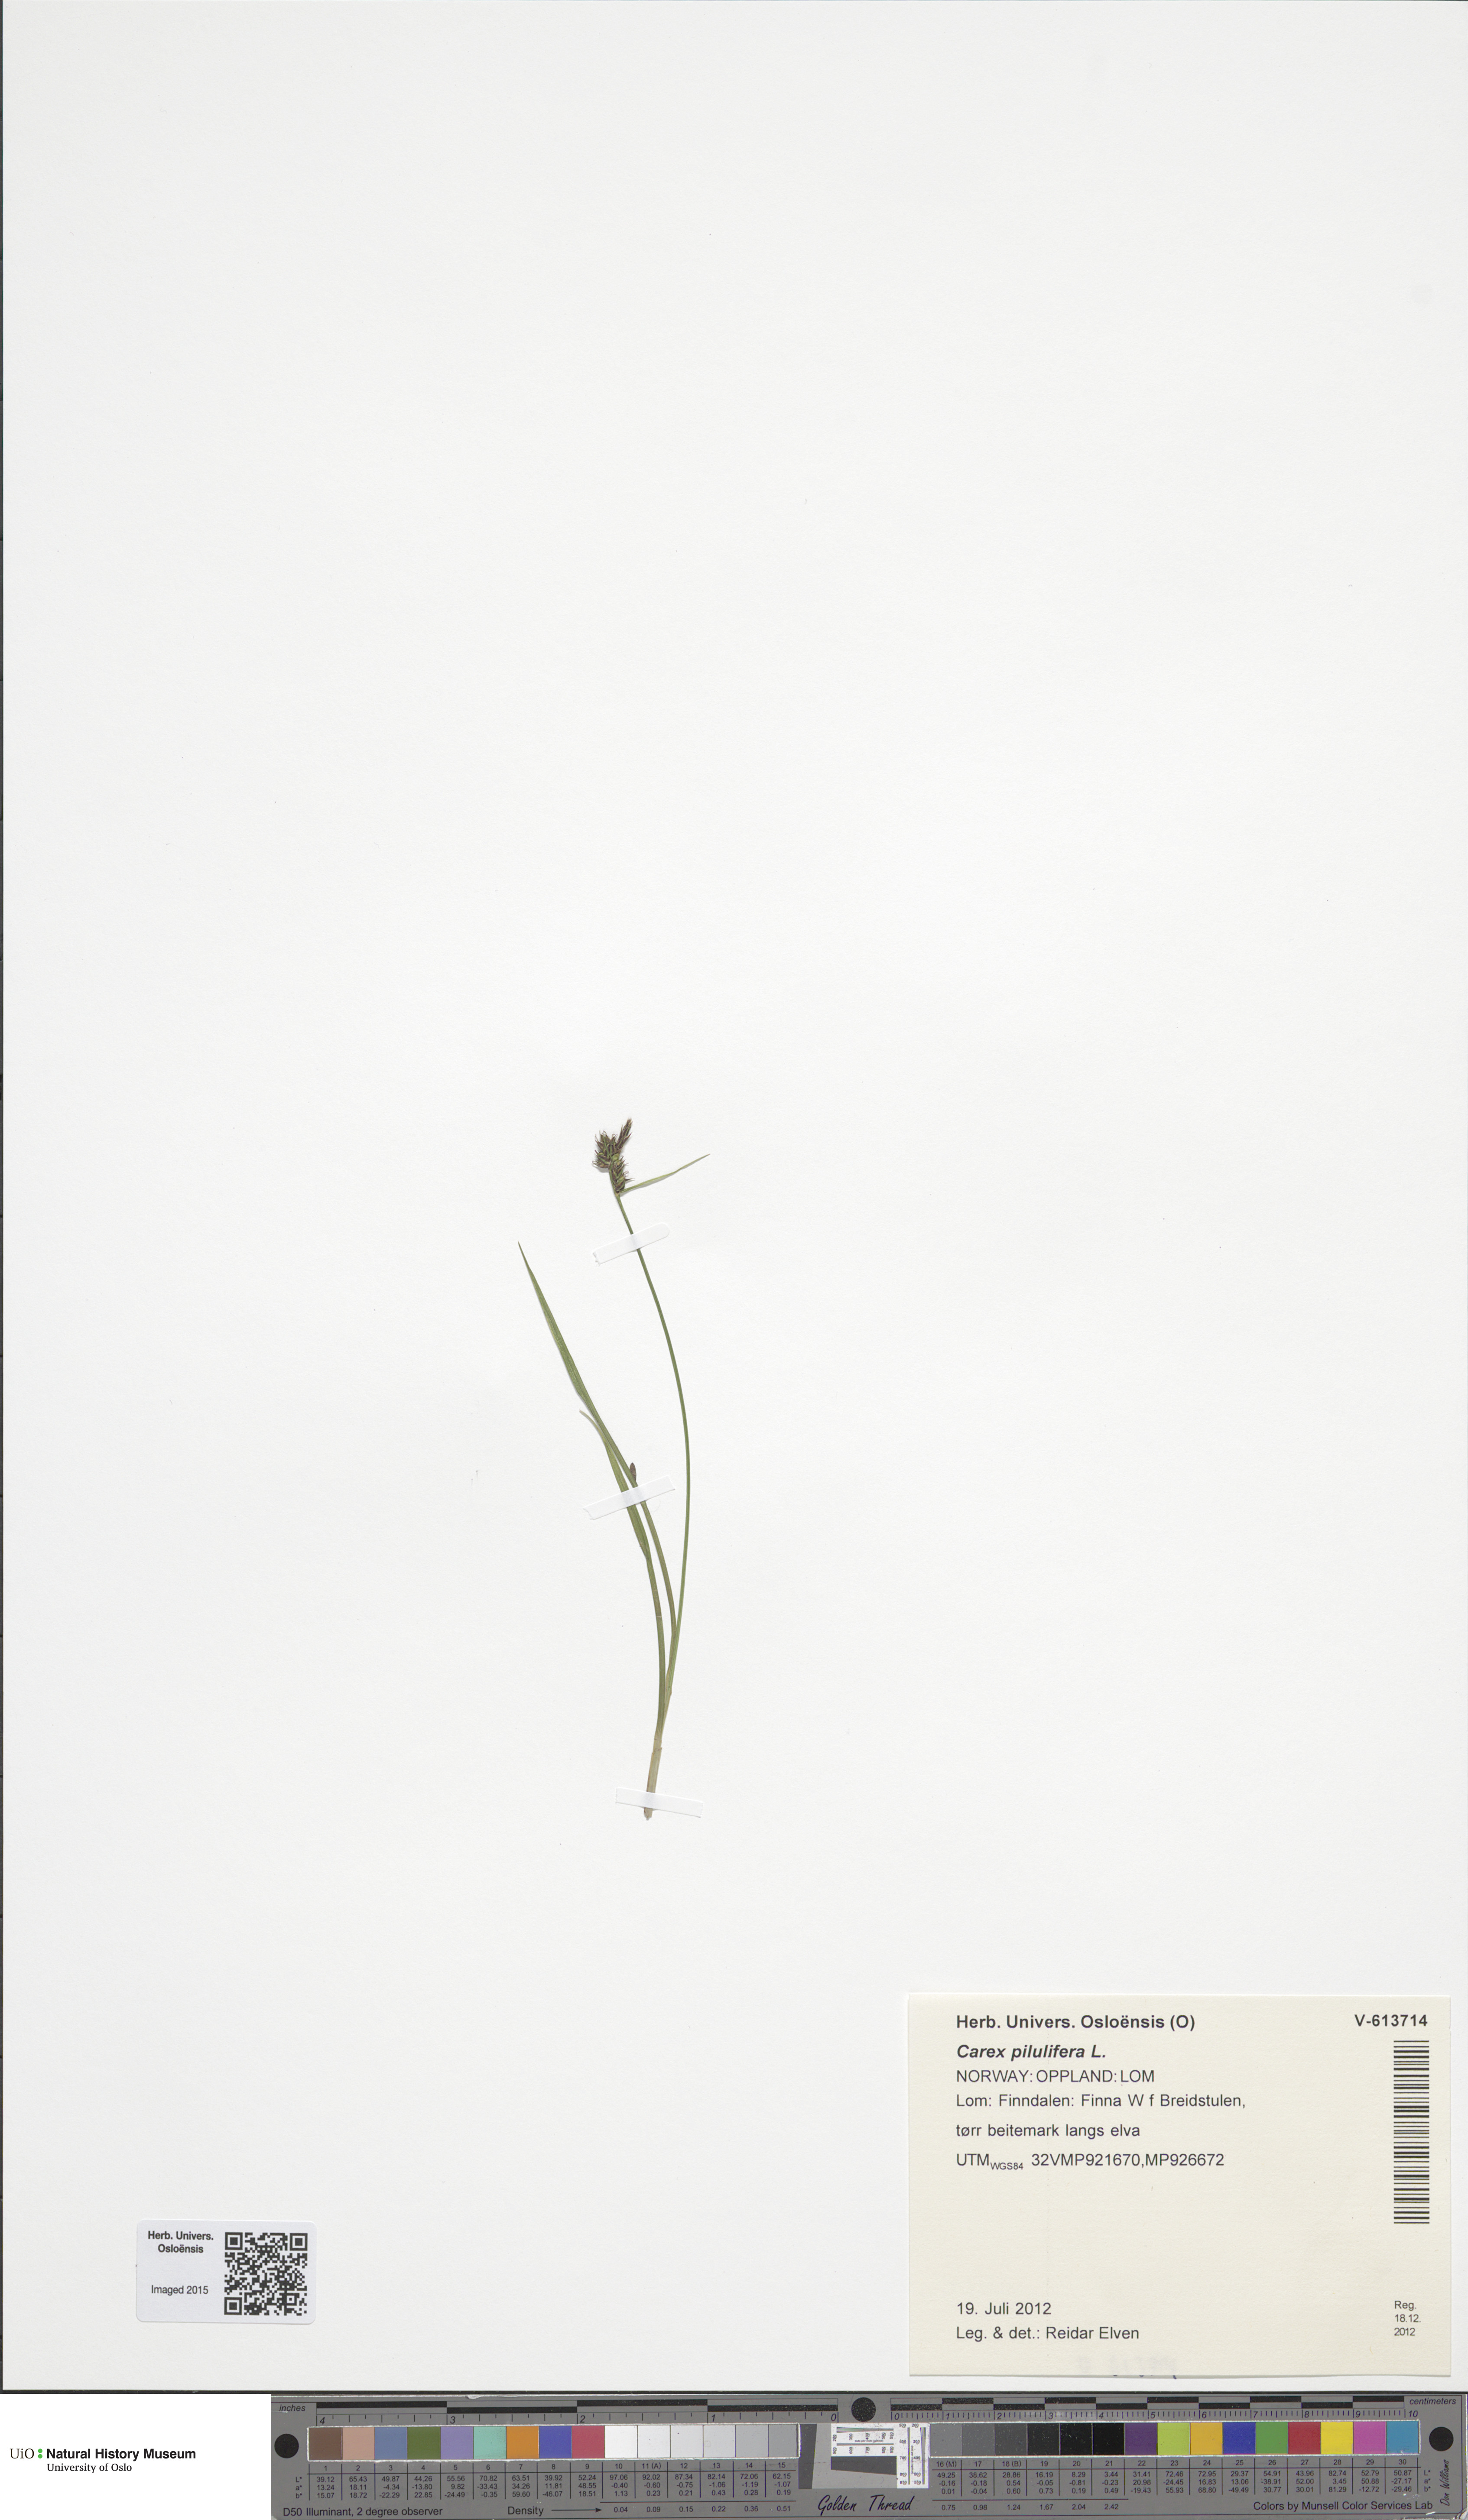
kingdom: Plantae
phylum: Tracheophyta
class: Liliopsida
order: Poales
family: Cyperaceae
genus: Carex
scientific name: Carex pilulifera
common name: Pill sedge
